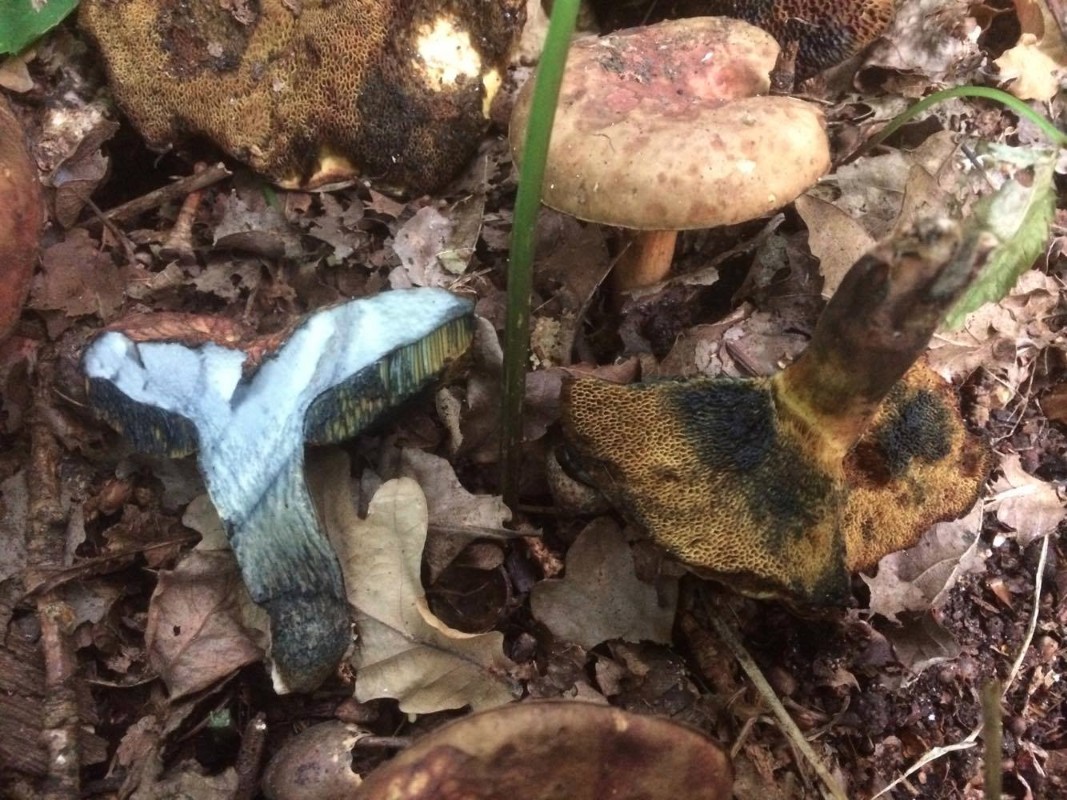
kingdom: Fungi
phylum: Basidiomycota
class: Agaricomycetes
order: Boletales
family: Boletaceae
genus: Cyanoboletus
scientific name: Cyanoboletus pulverulentus
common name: sortblånende rørhat
